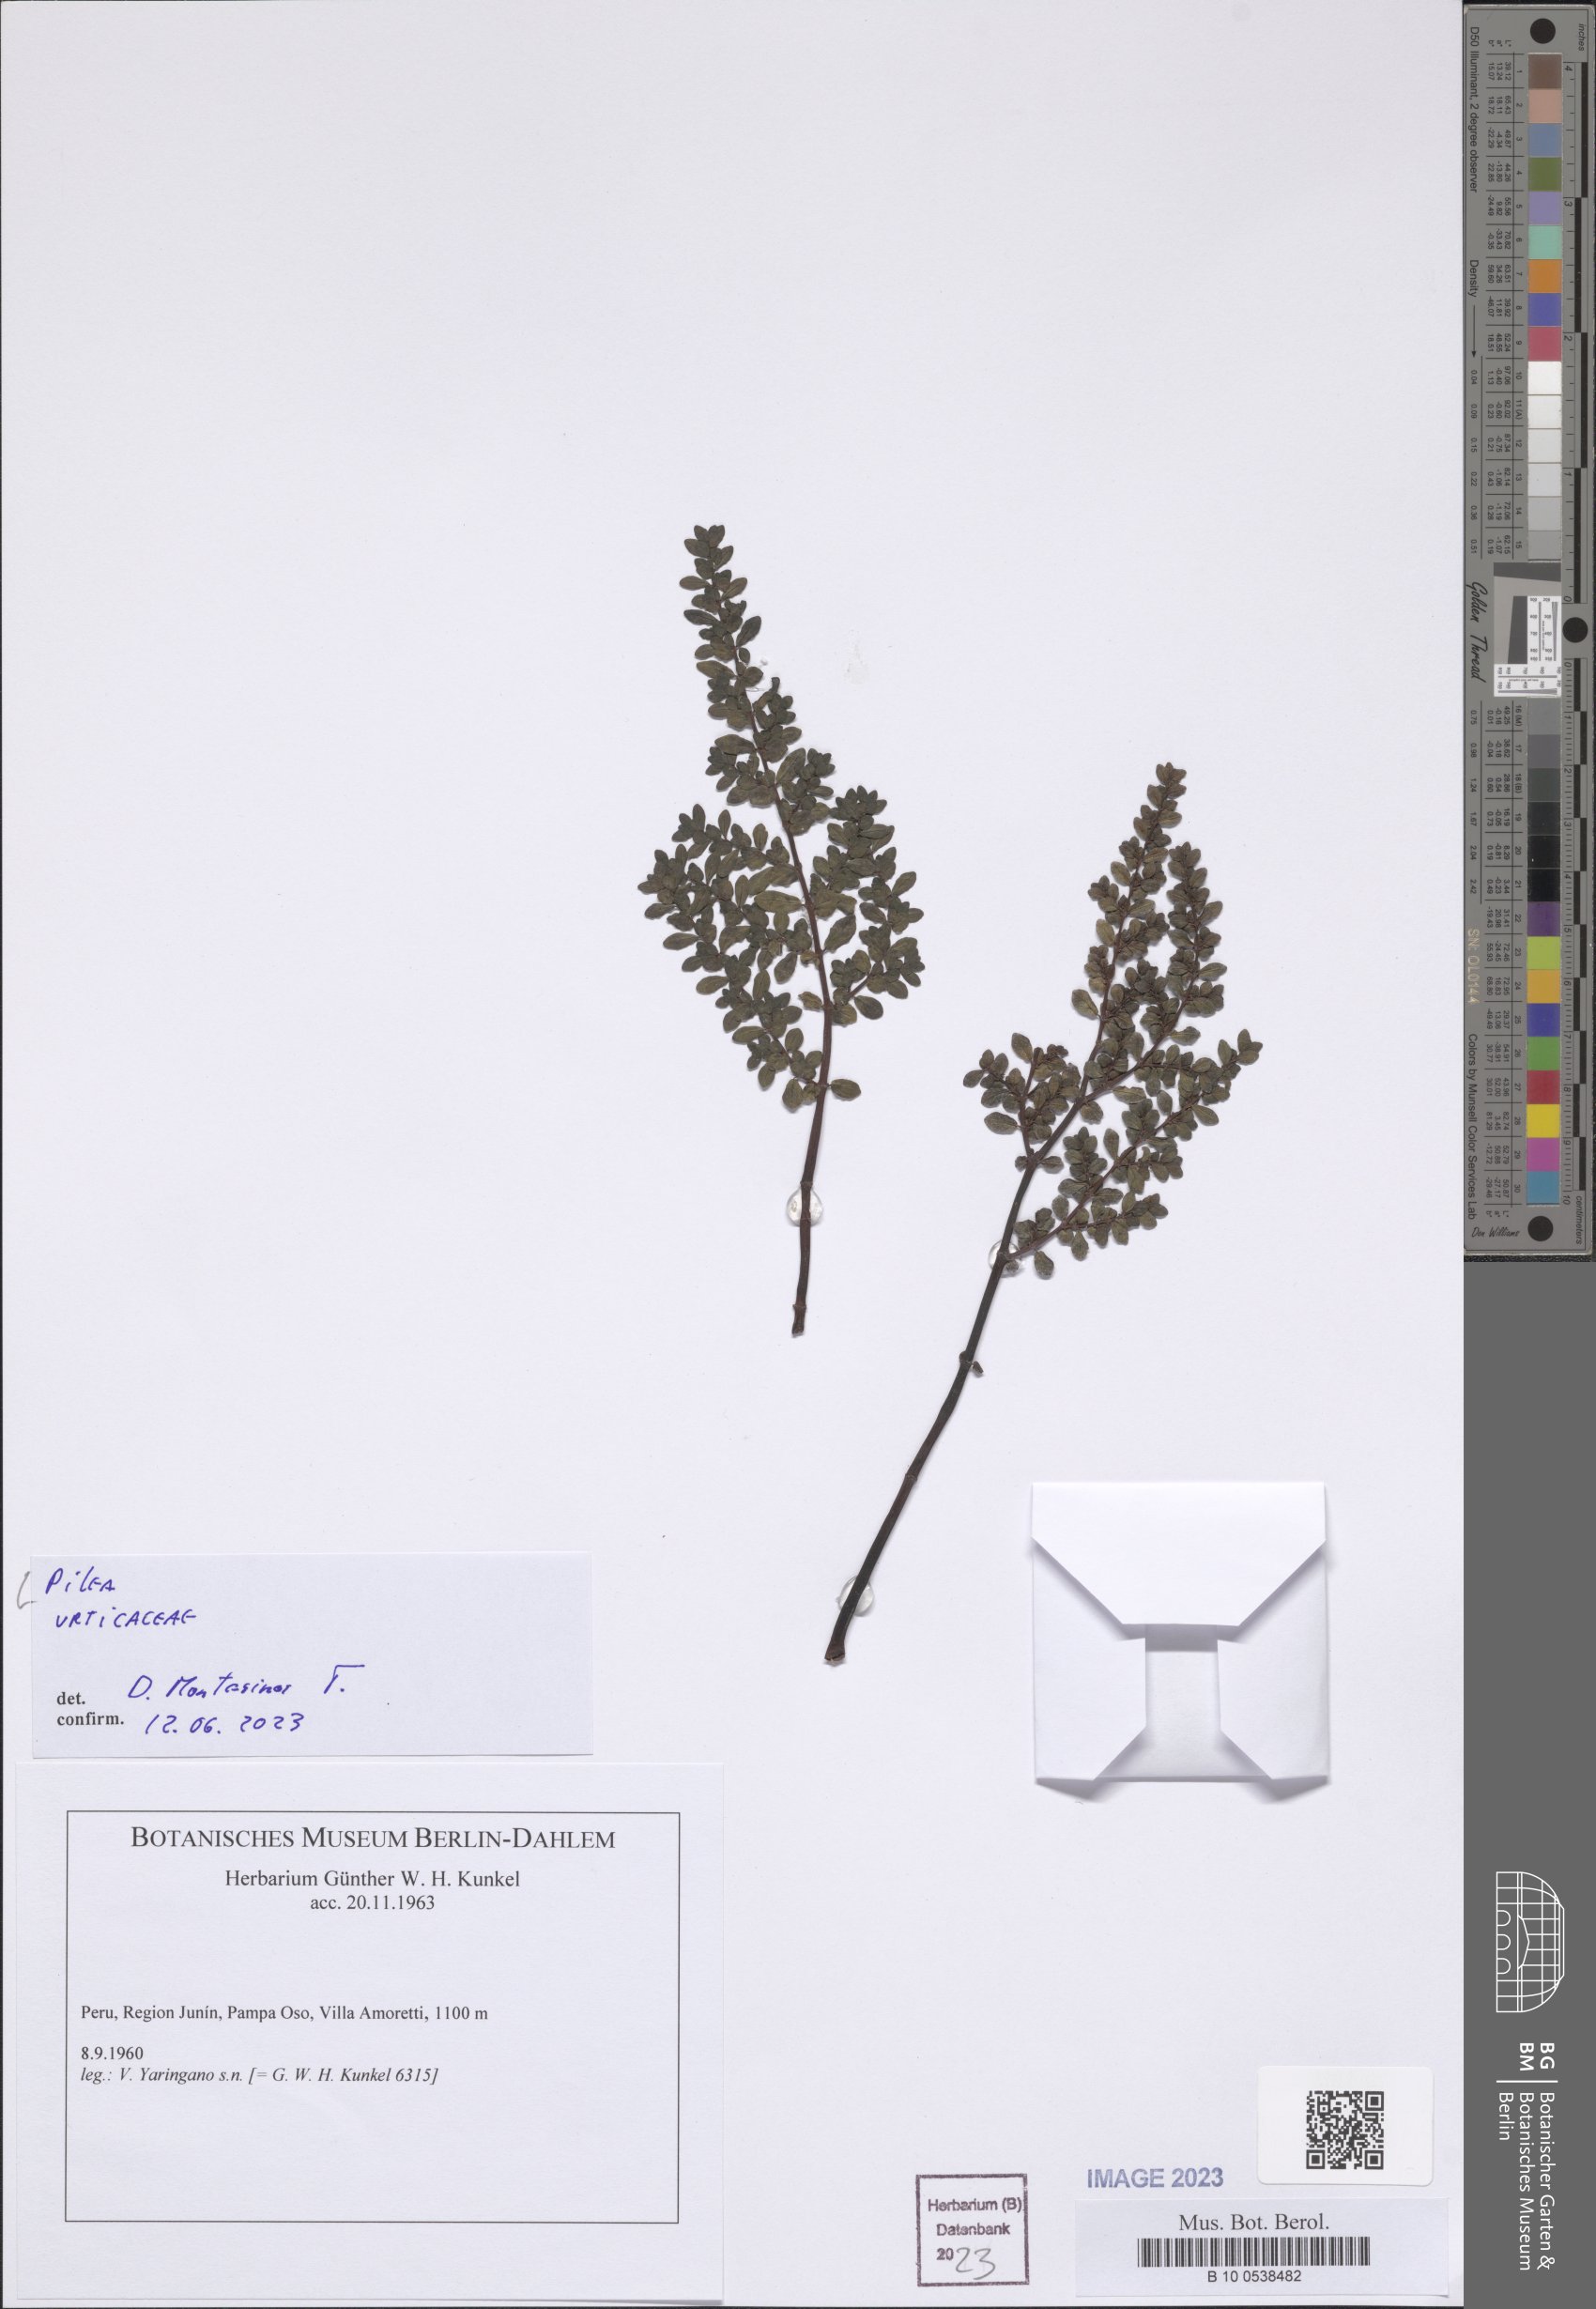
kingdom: Plantae
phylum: Tracheophyta
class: Magnoliopsida
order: Rosales
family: Urticaceae
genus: Pilea
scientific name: Pilea
